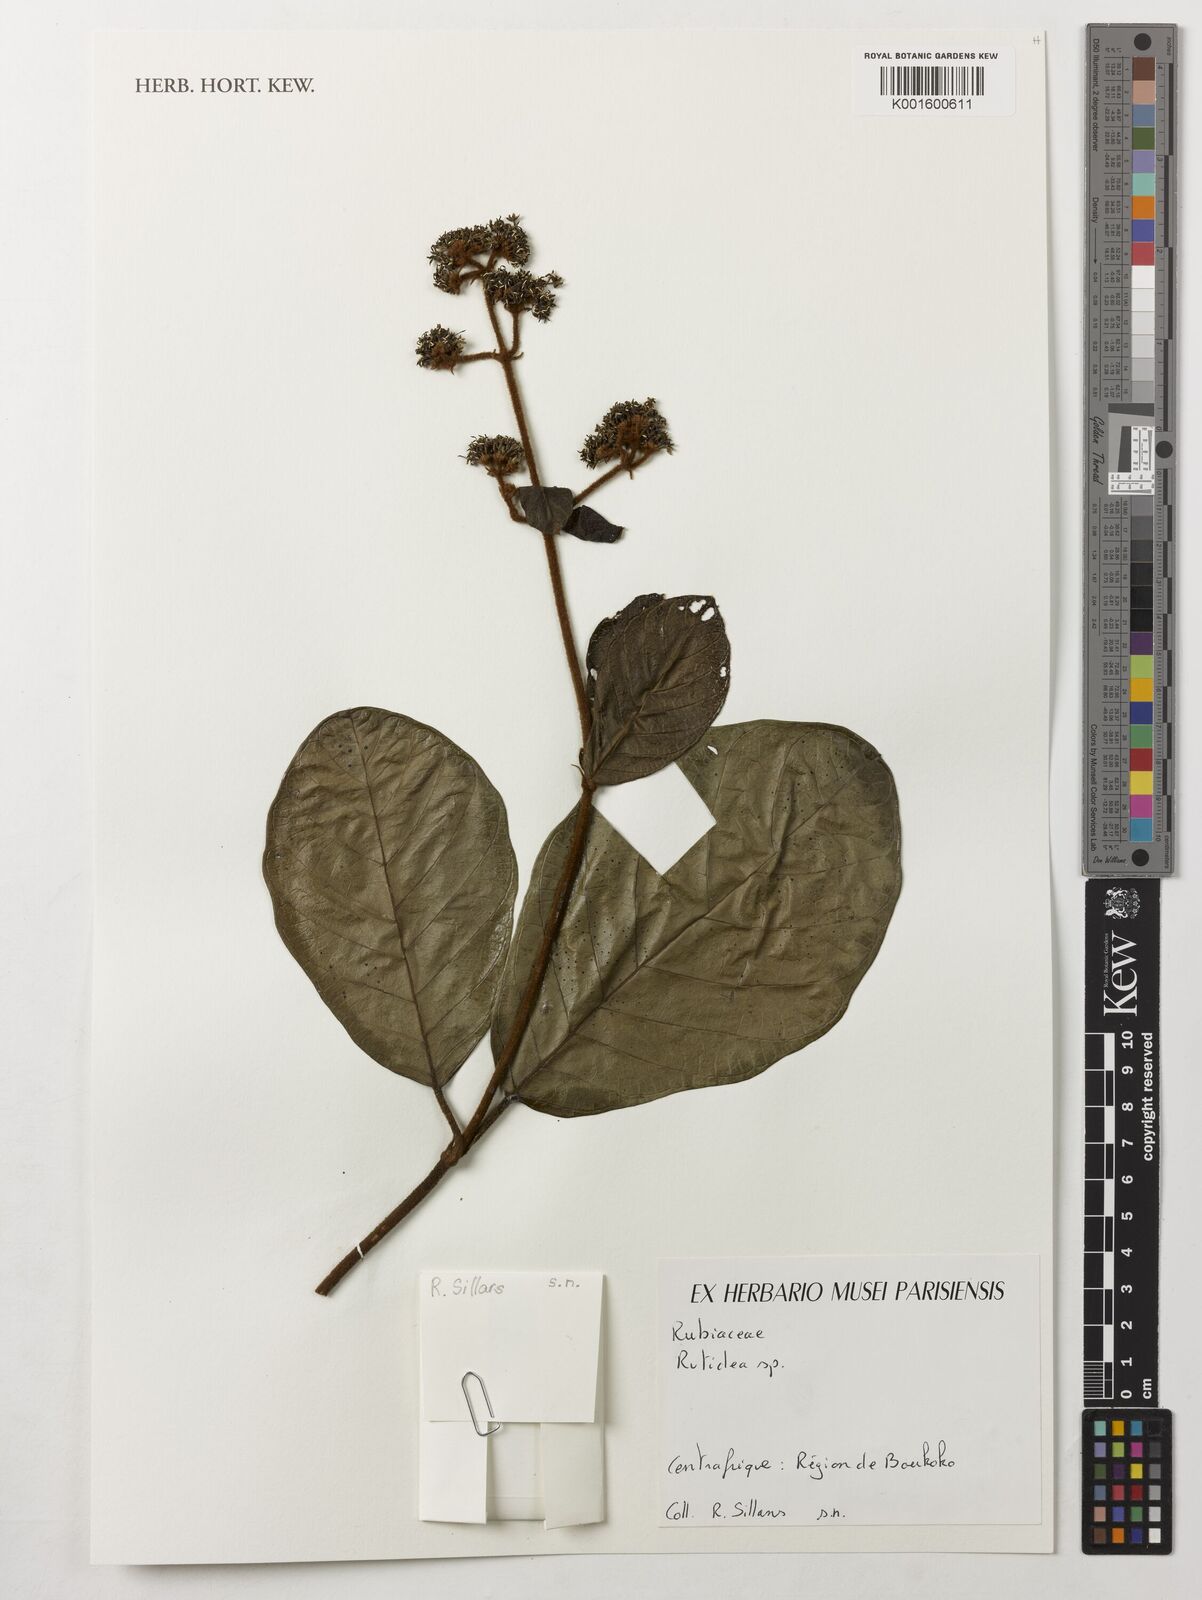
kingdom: Plantae
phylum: Tracheophyta
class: Magnoliopsida
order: Gentianales
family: Rubiaceae
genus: Rutidea
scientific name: Rutidea
